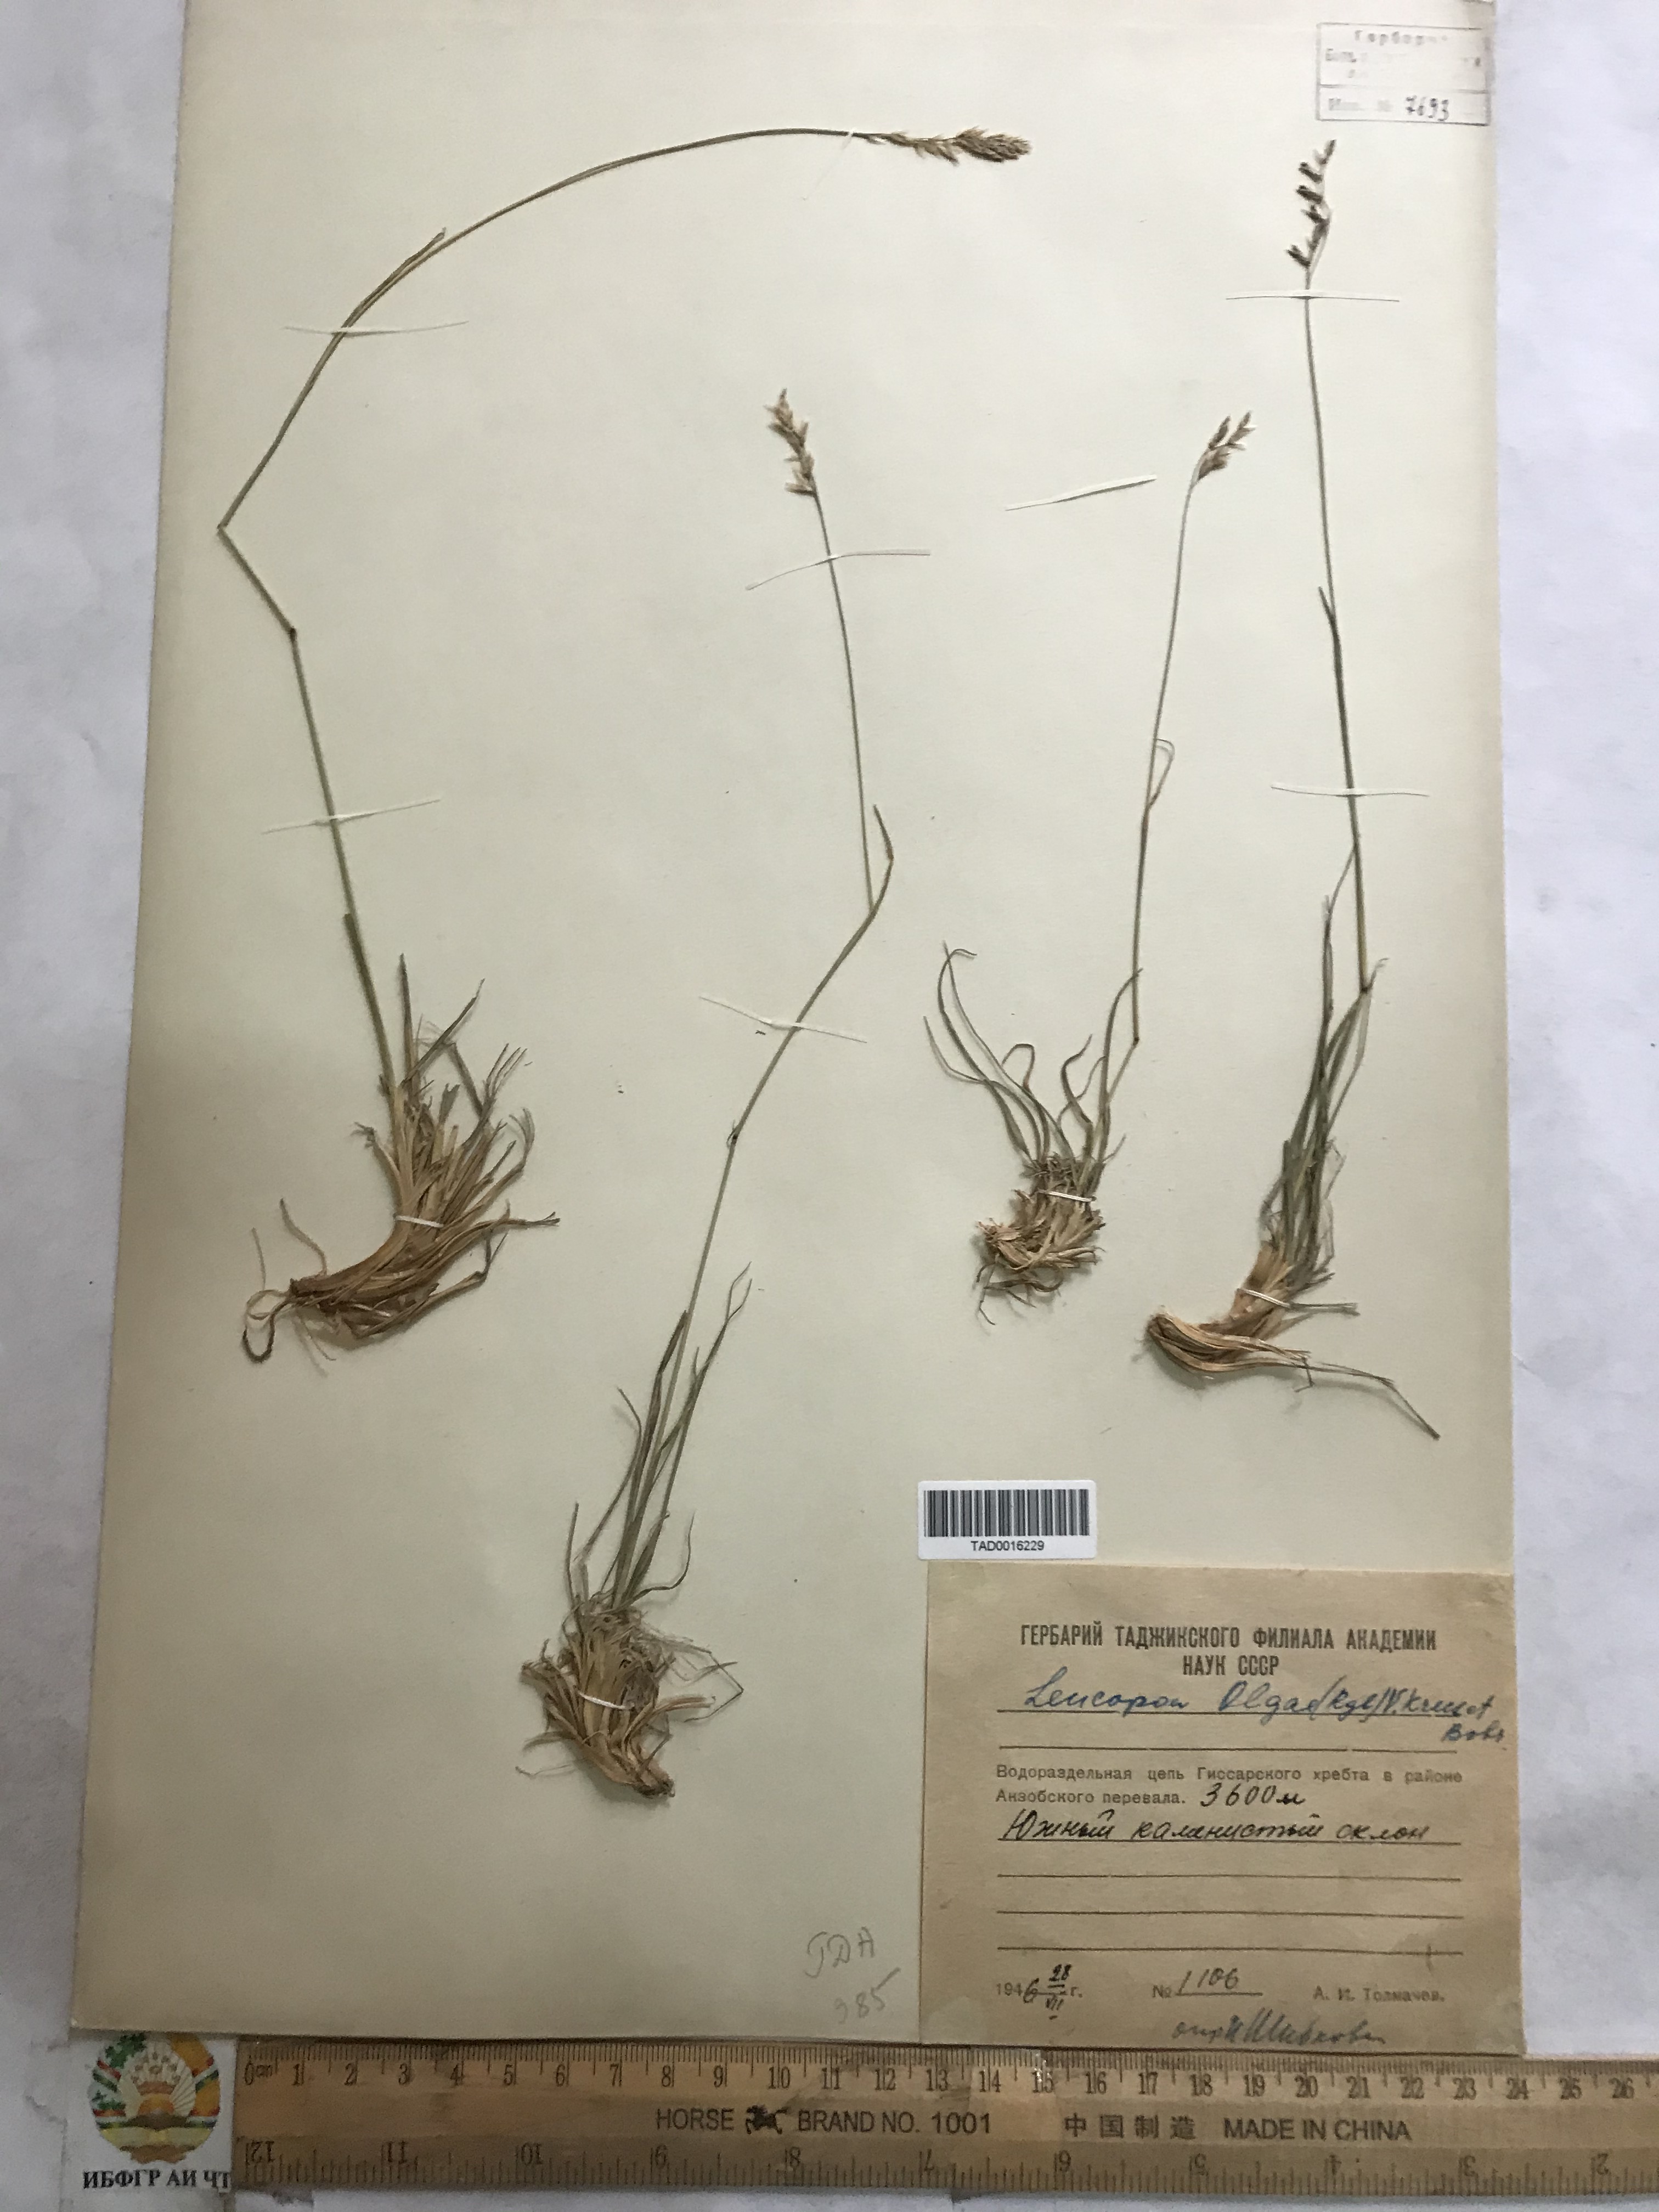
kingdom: Plantae
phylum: Tracheophyta
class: Liliopsida
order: Poales
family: Poaceae
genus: Festuca
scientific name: Festuca
